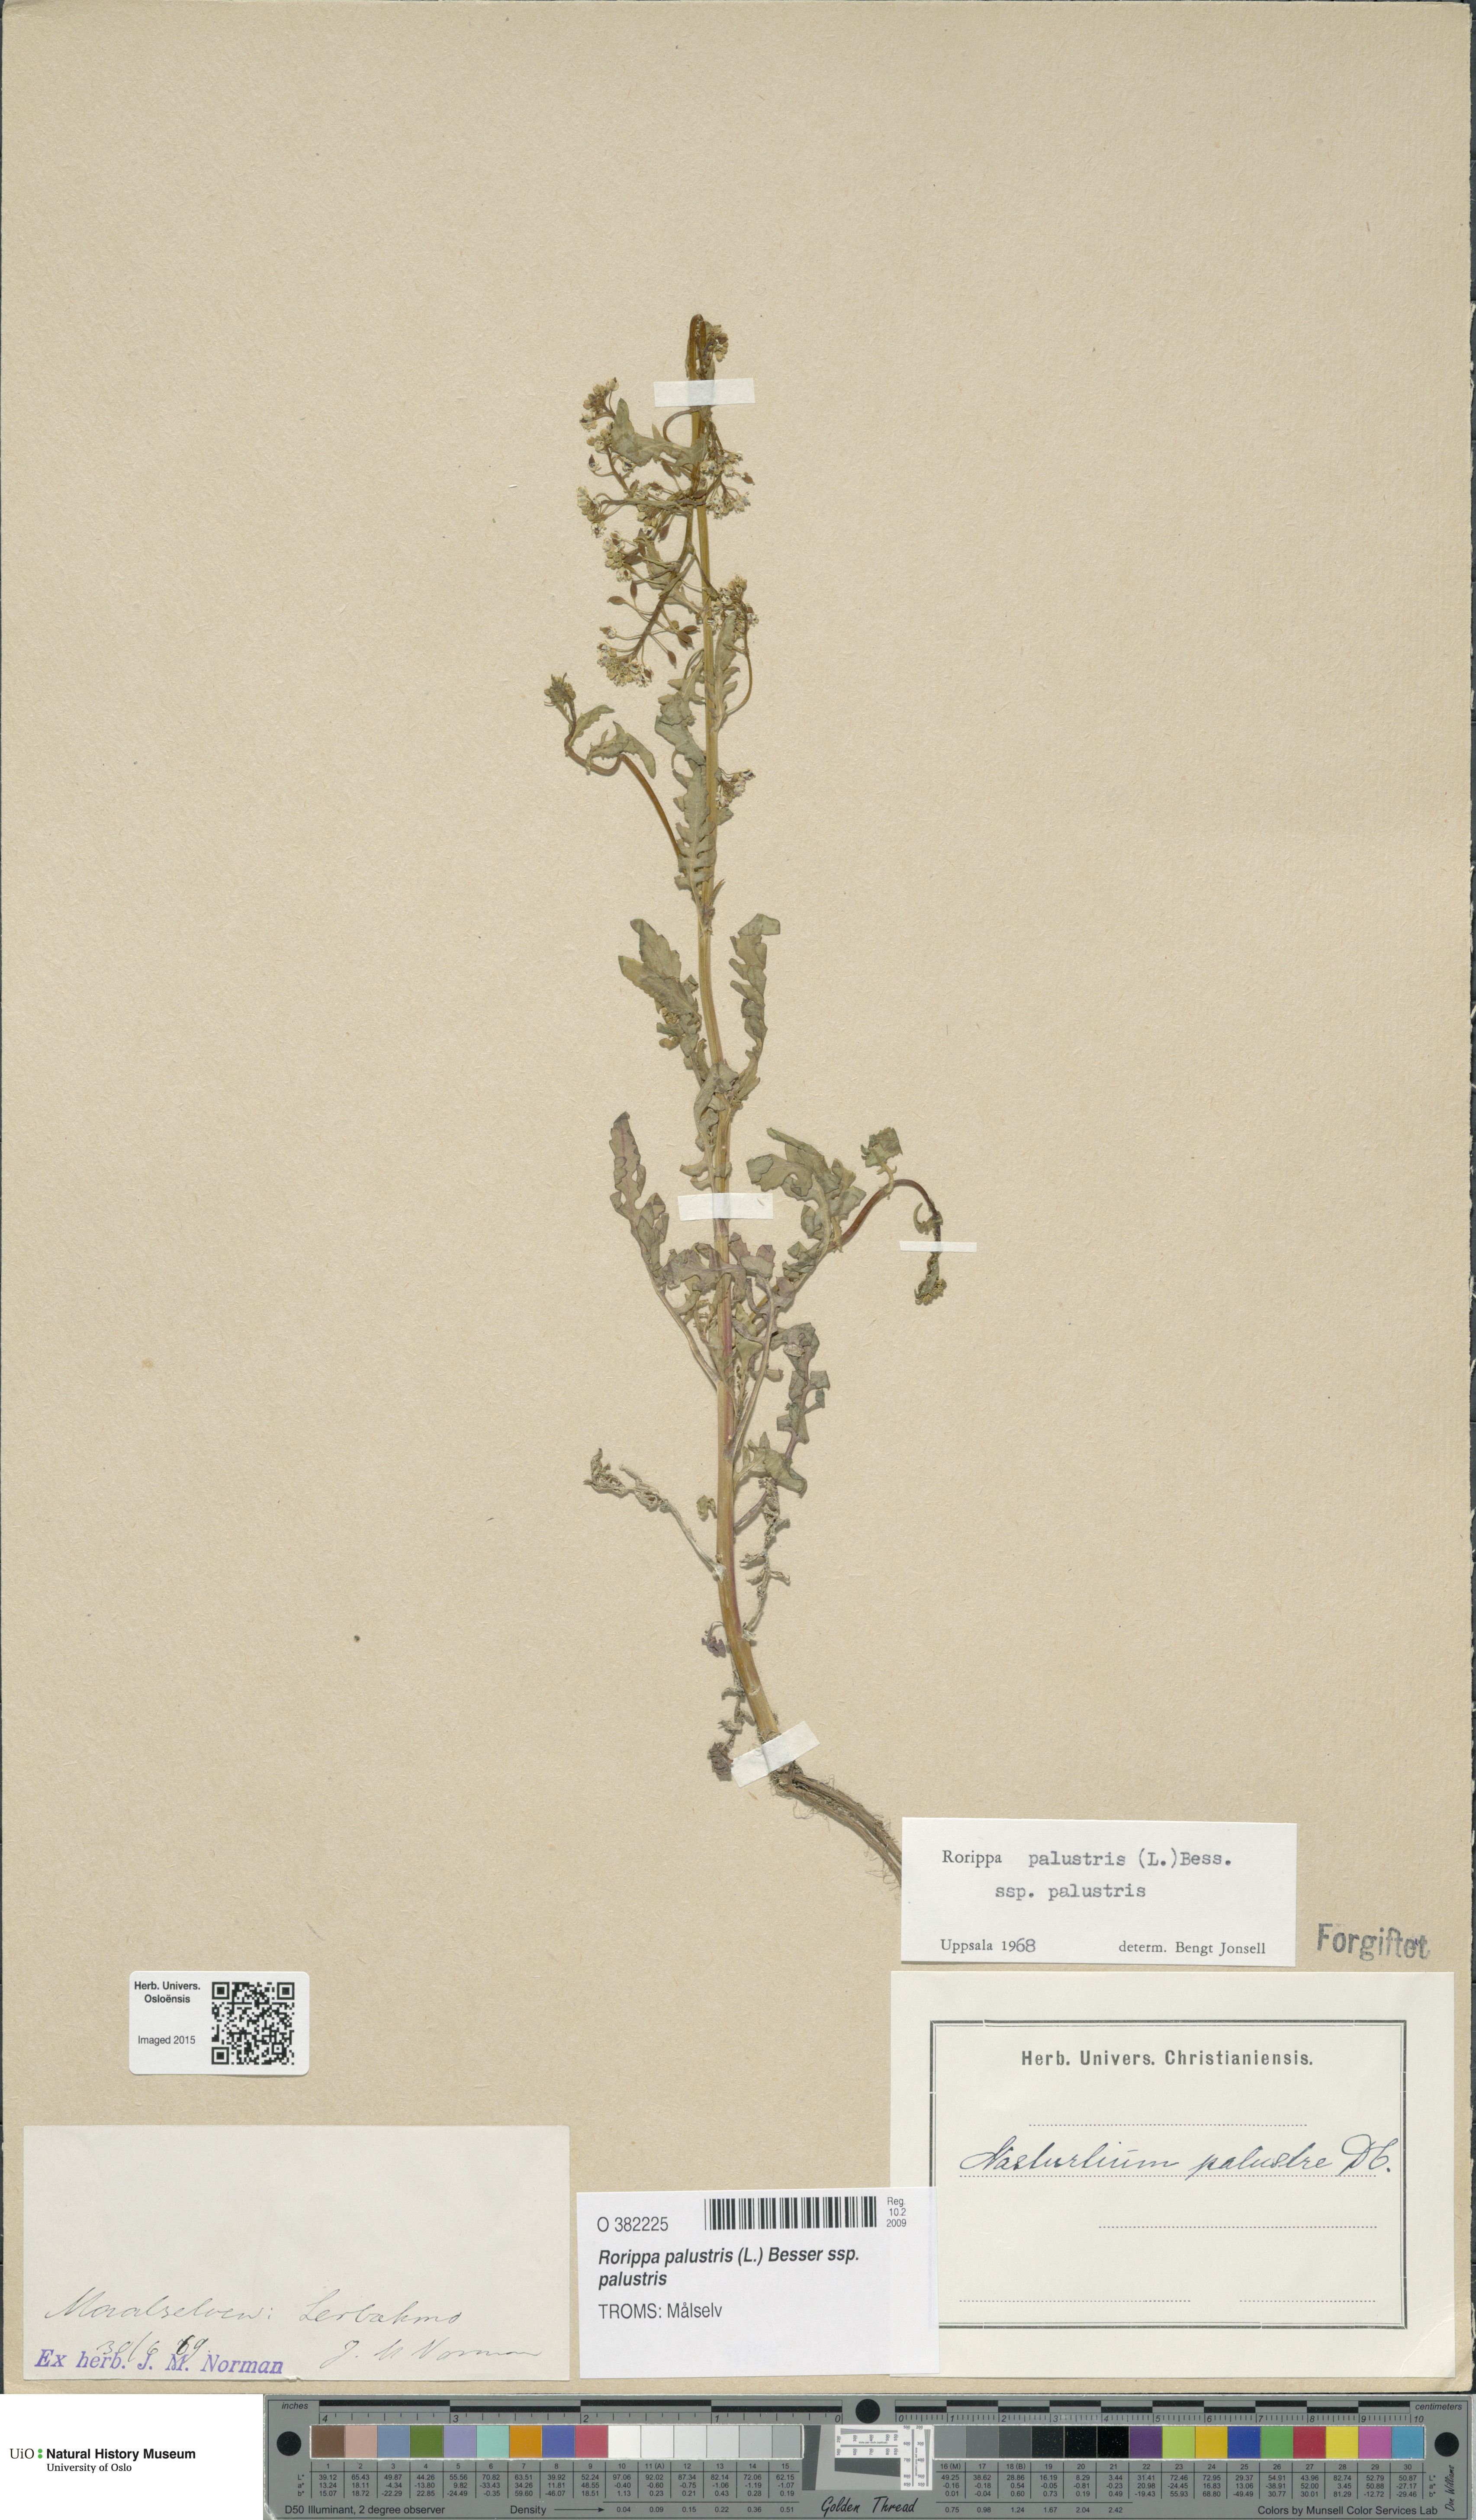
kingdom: Plantae
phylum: Tracheophyta
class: Magnoliopsida
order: Brassicales
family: Brassicaceae
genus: Rorippa
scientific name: Rorippa palustris
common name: Marsh yellow-cress
